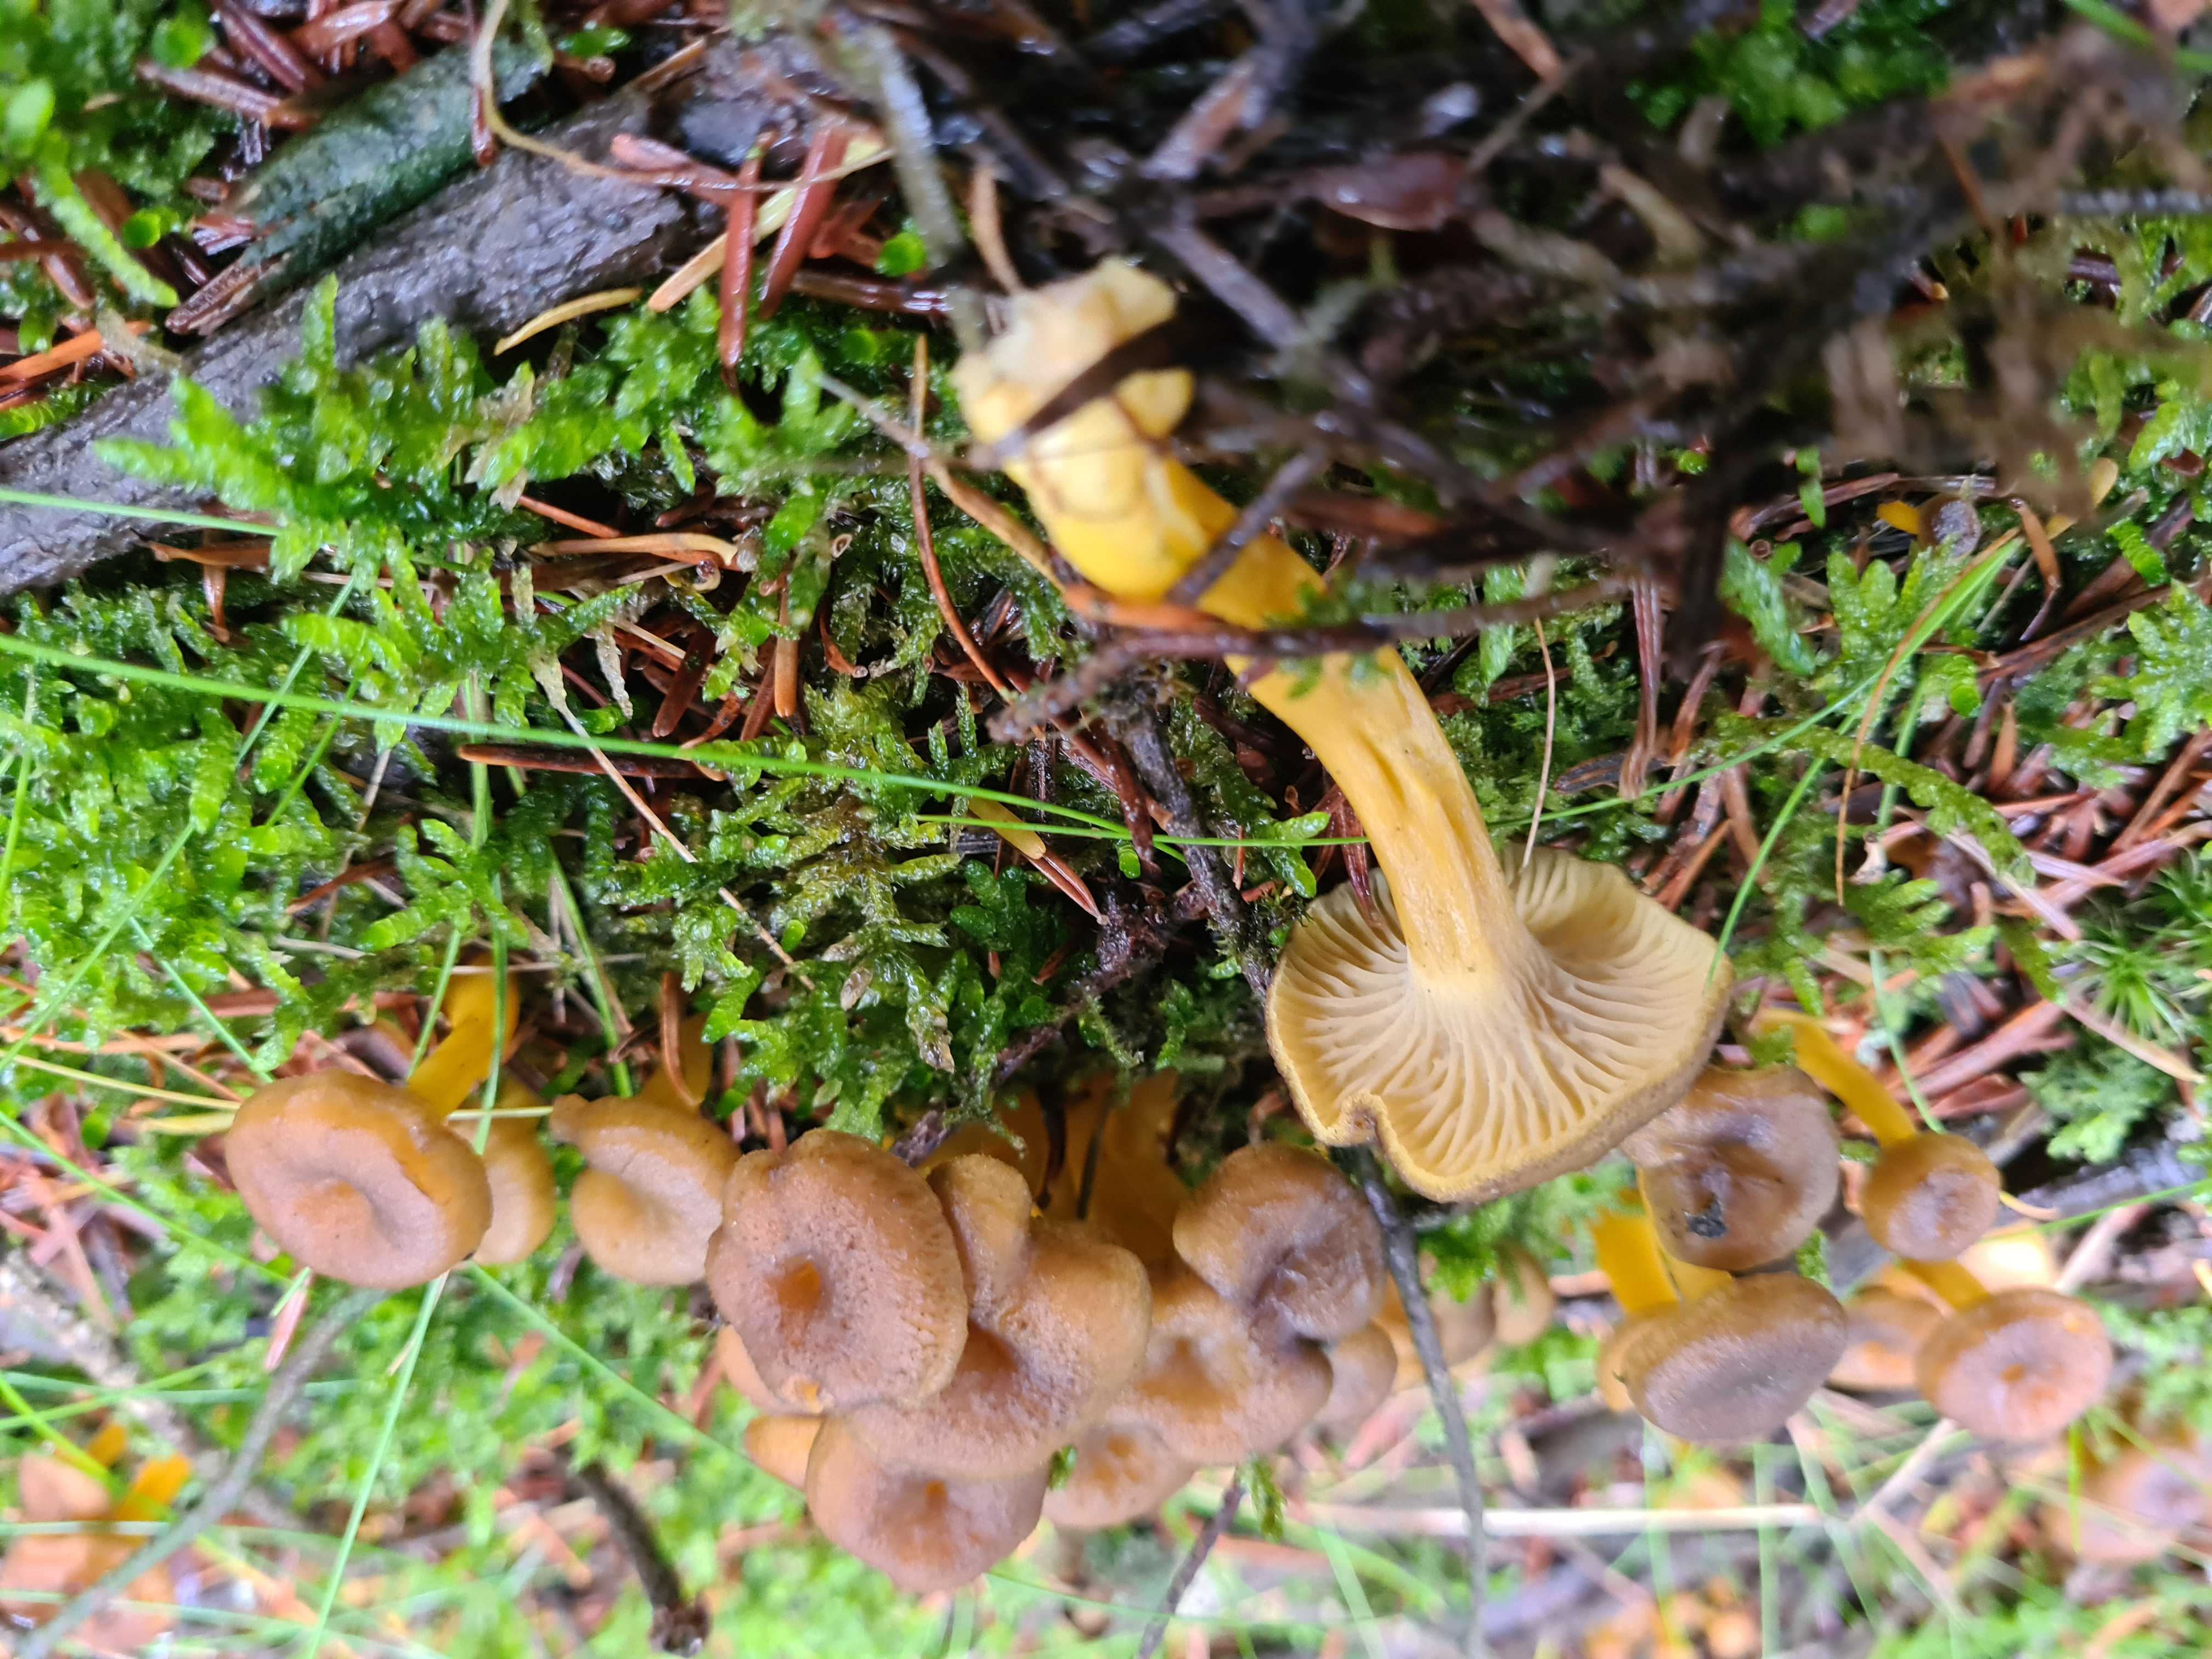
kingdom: Fungi
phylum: Basidiomycota
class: Agaricomycetes
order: Cantharellales
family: Hydnaceae
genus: Craterellus
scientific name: Craterellus tubaeformis
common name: tragt-kantarel
